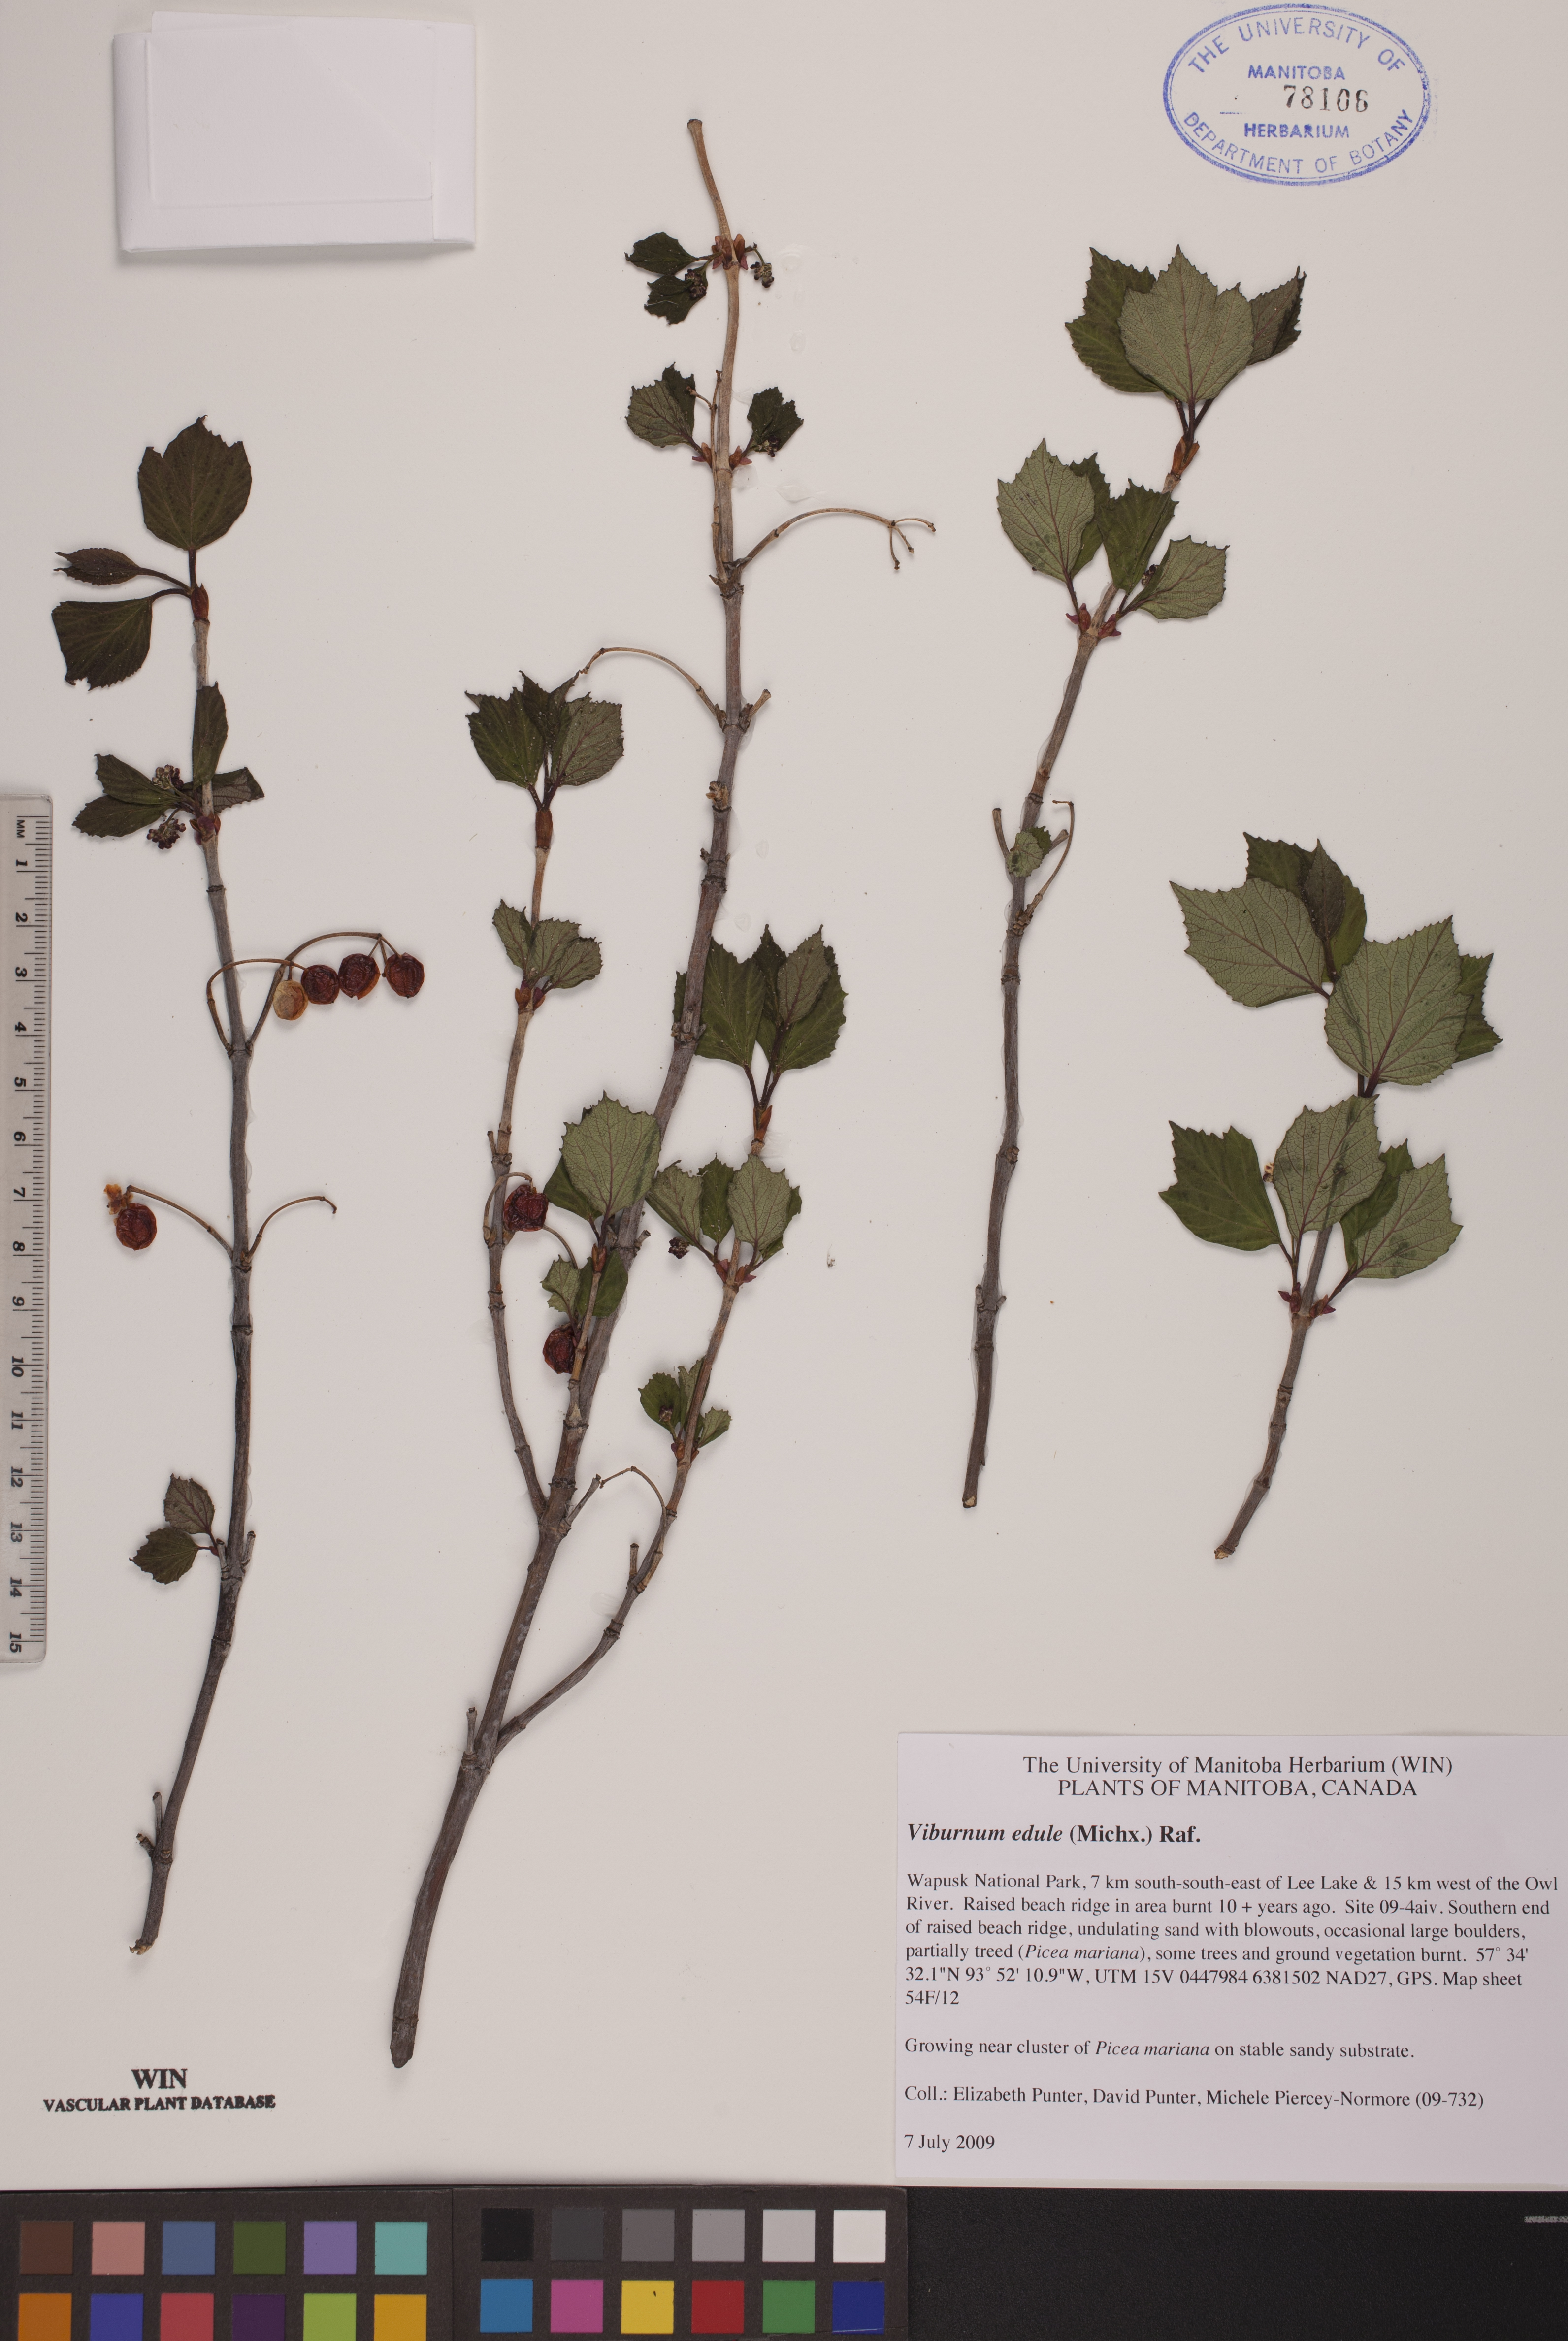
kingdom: Plantae
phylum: Tracheophyta
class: Magnoliopsida
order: Dipsacales
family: Viburnaceae
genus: Viburnum
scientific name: Viburnum edule
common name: Mooseberry
